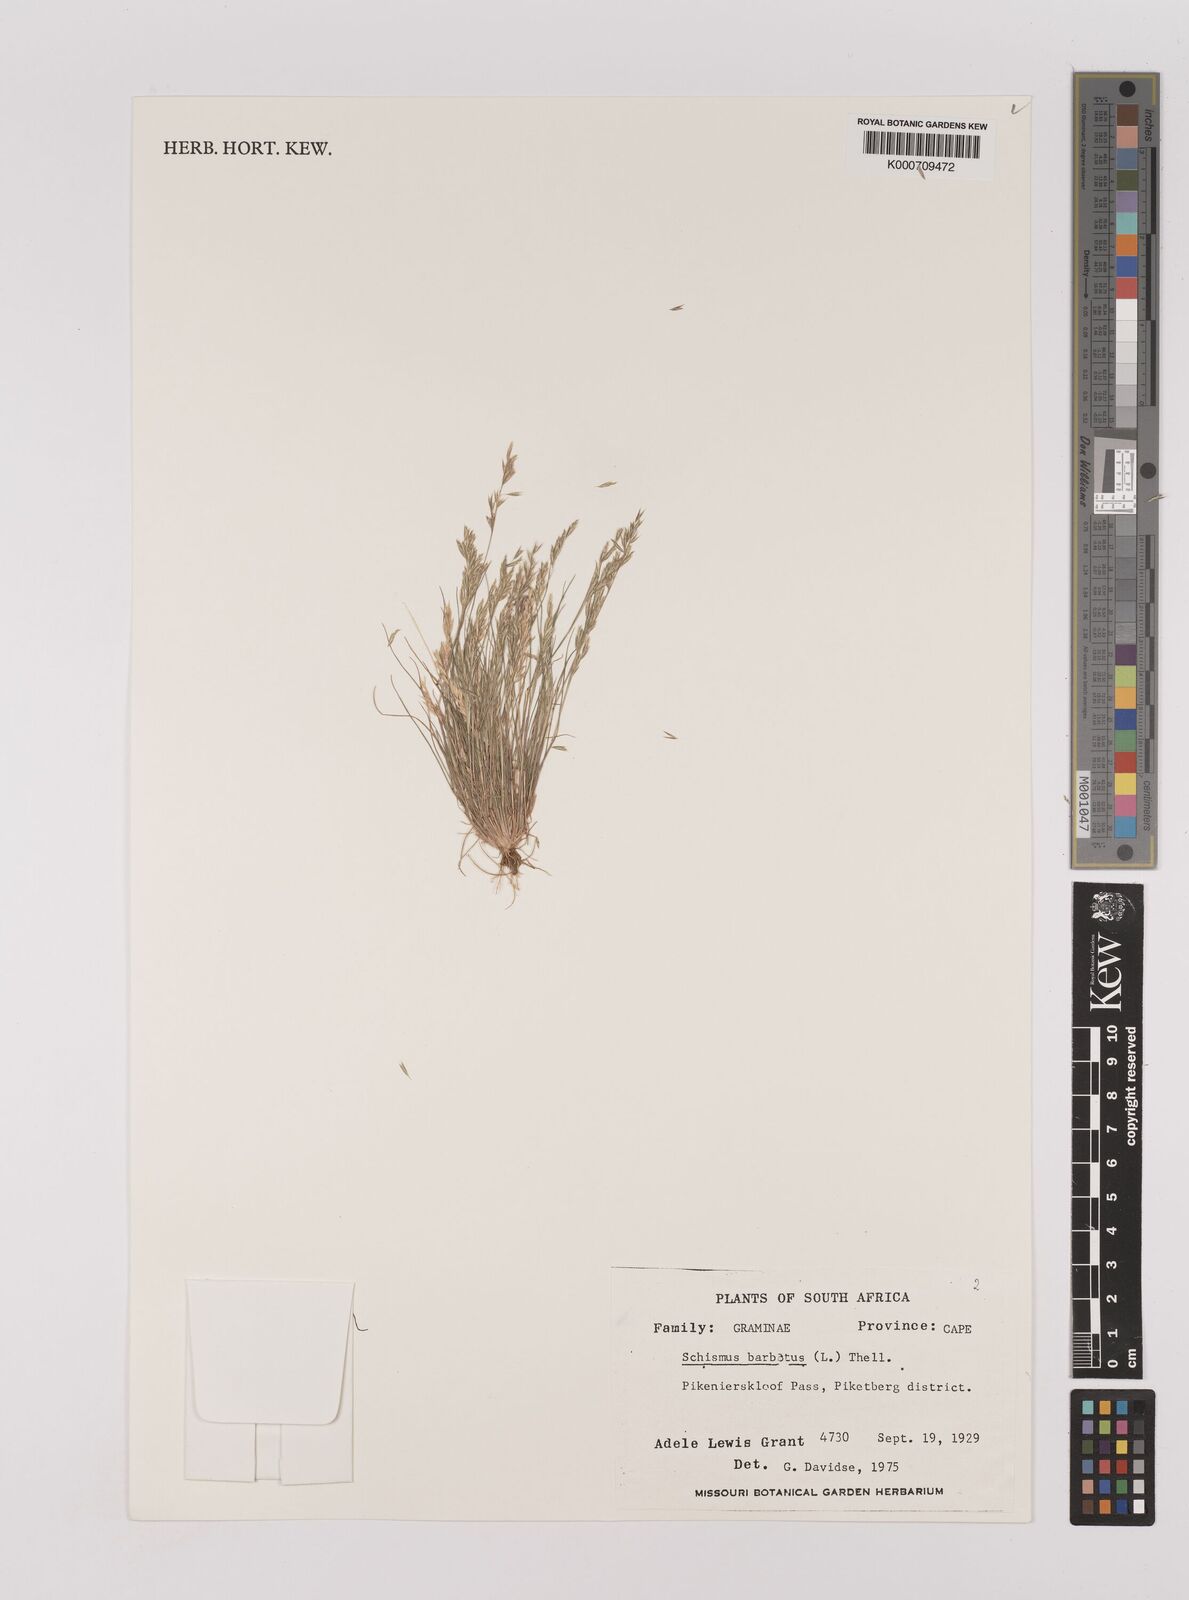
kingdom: Plantae
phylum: Tracheophyta
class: Liliopsida
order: Poales
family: Poaceae
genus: Schismus
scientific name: Schismus barbatus
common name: Kelch-grass
